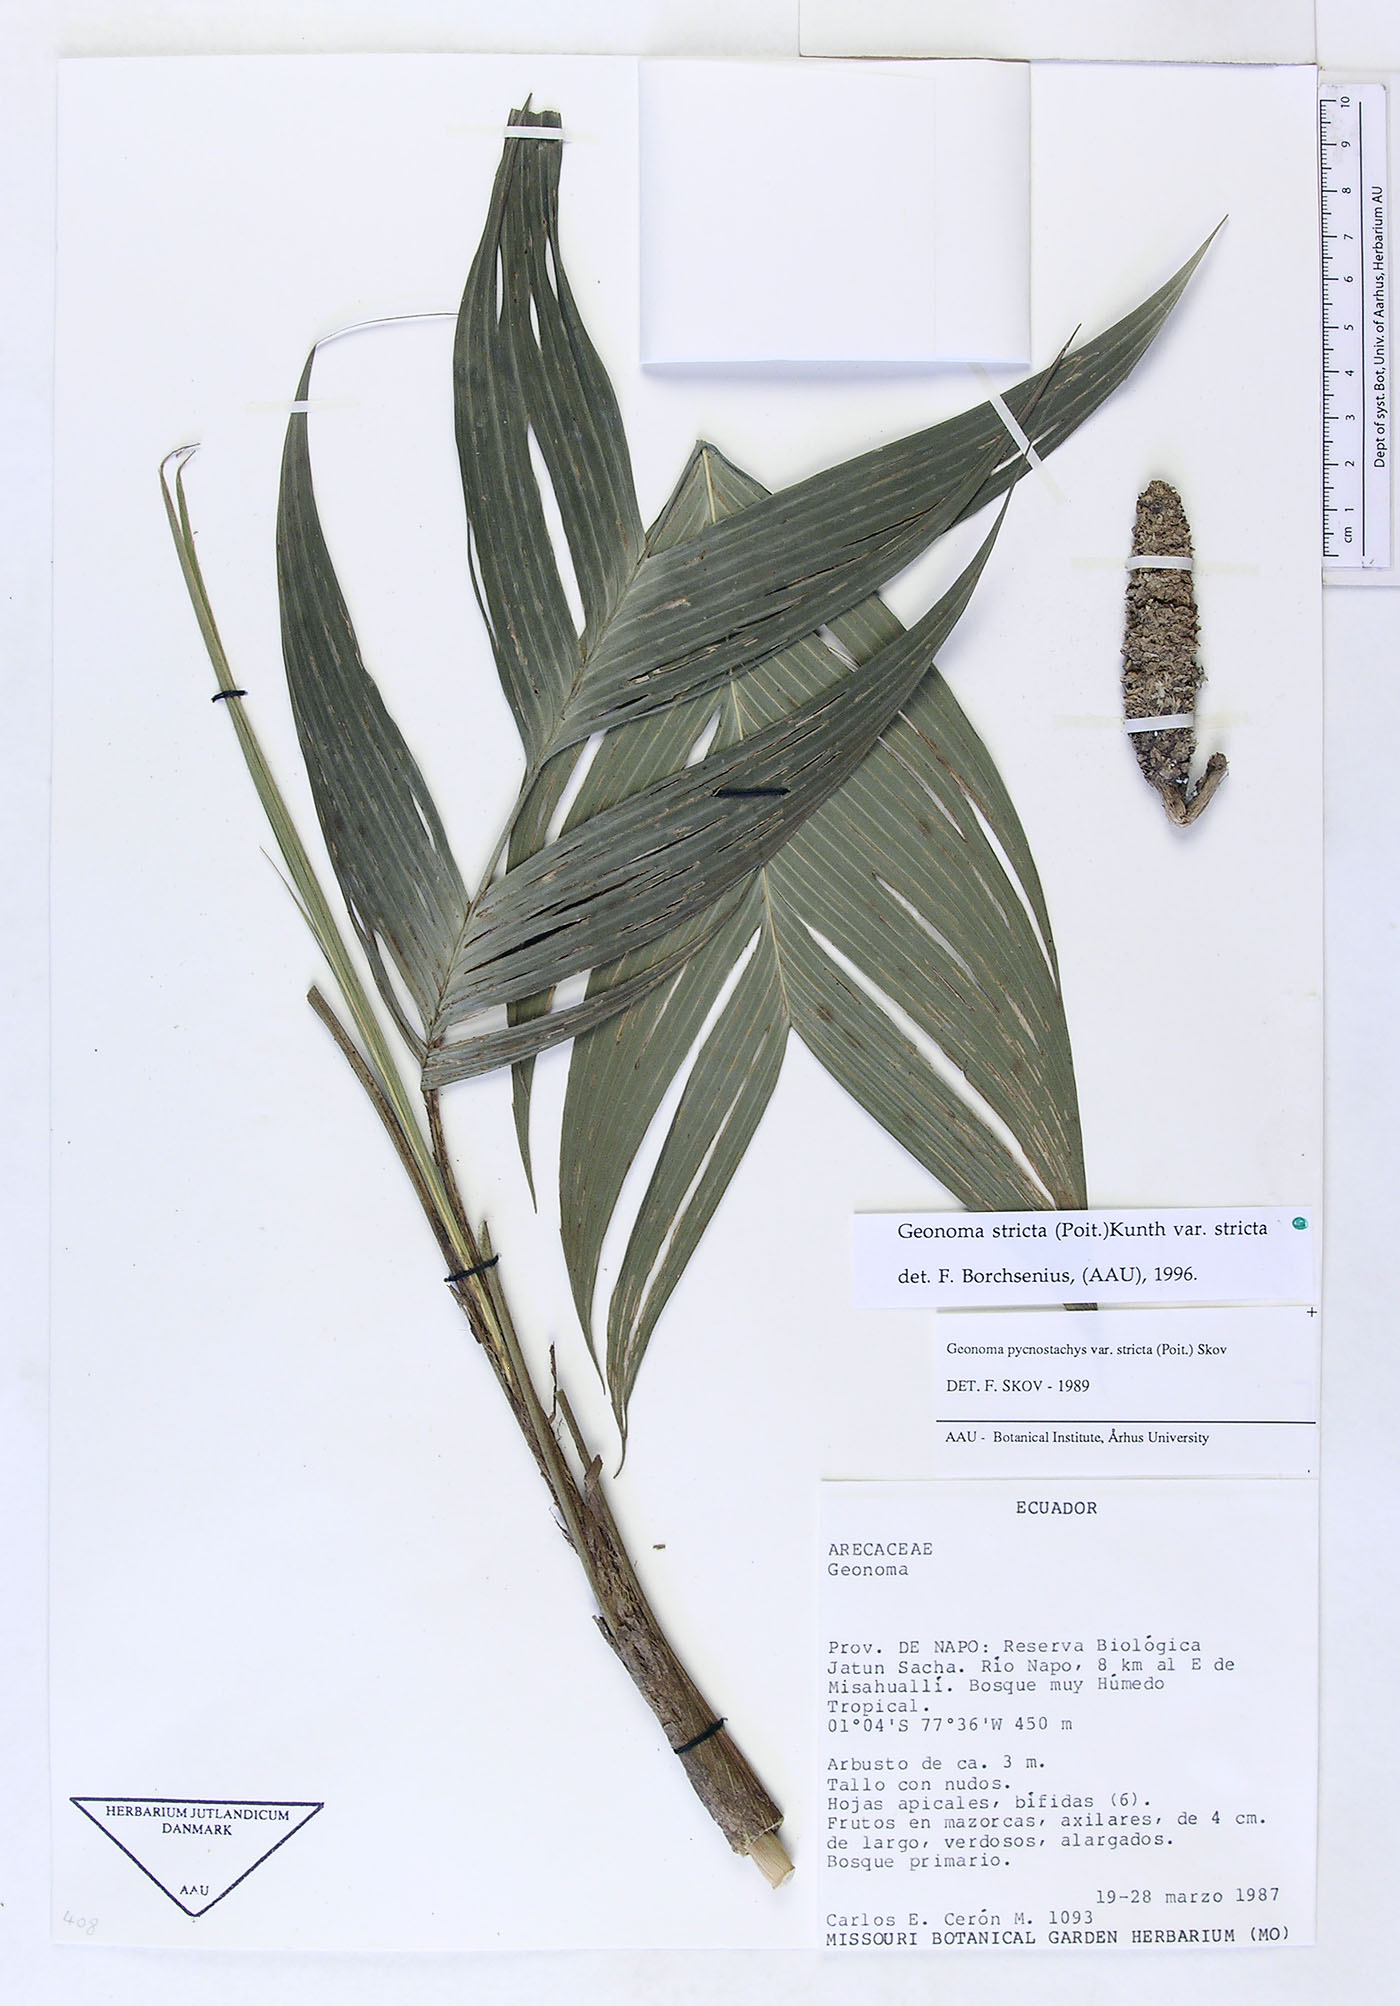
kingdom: Plantae
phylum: Tracheophyta
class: Liliopsida
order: Arecales
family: Arecaceae
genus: Geonoma
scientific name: Geonoma stricta
